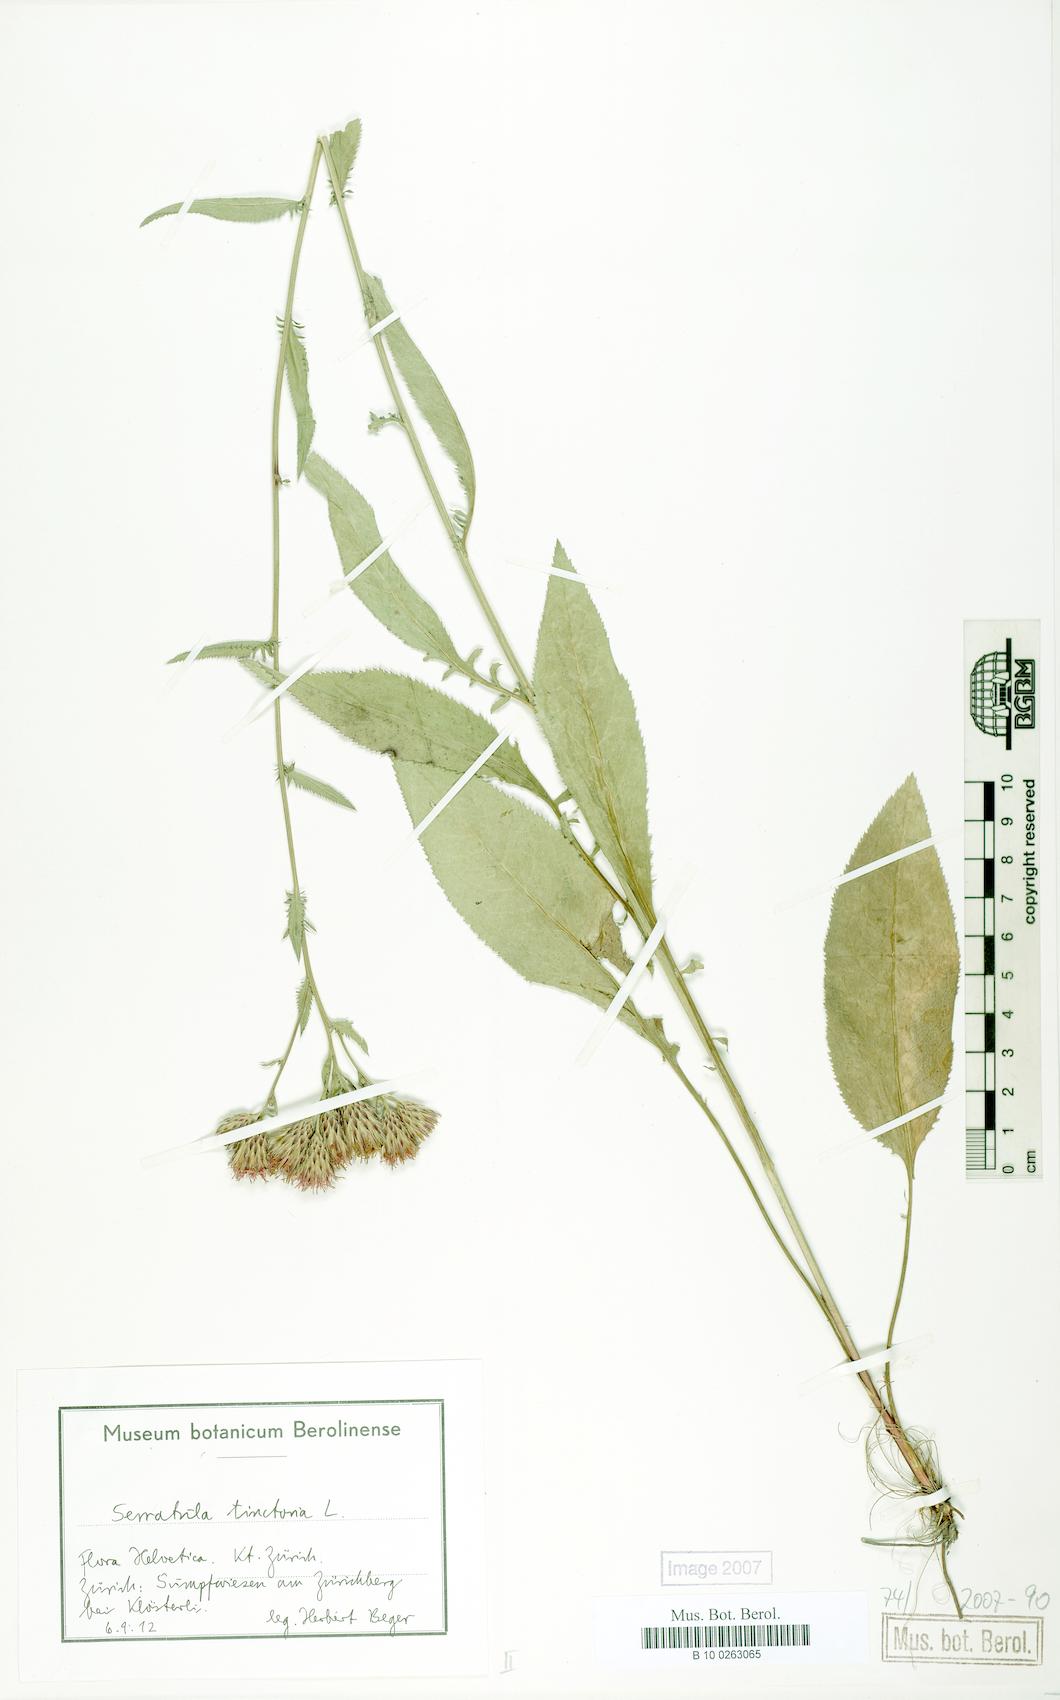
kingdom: Plantae
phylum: Tracheophyta
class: Magnoliopsida
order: Asterales
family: Asteraceae
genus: Serratula
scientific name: Serratula tinctoria
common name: Saw-wort
